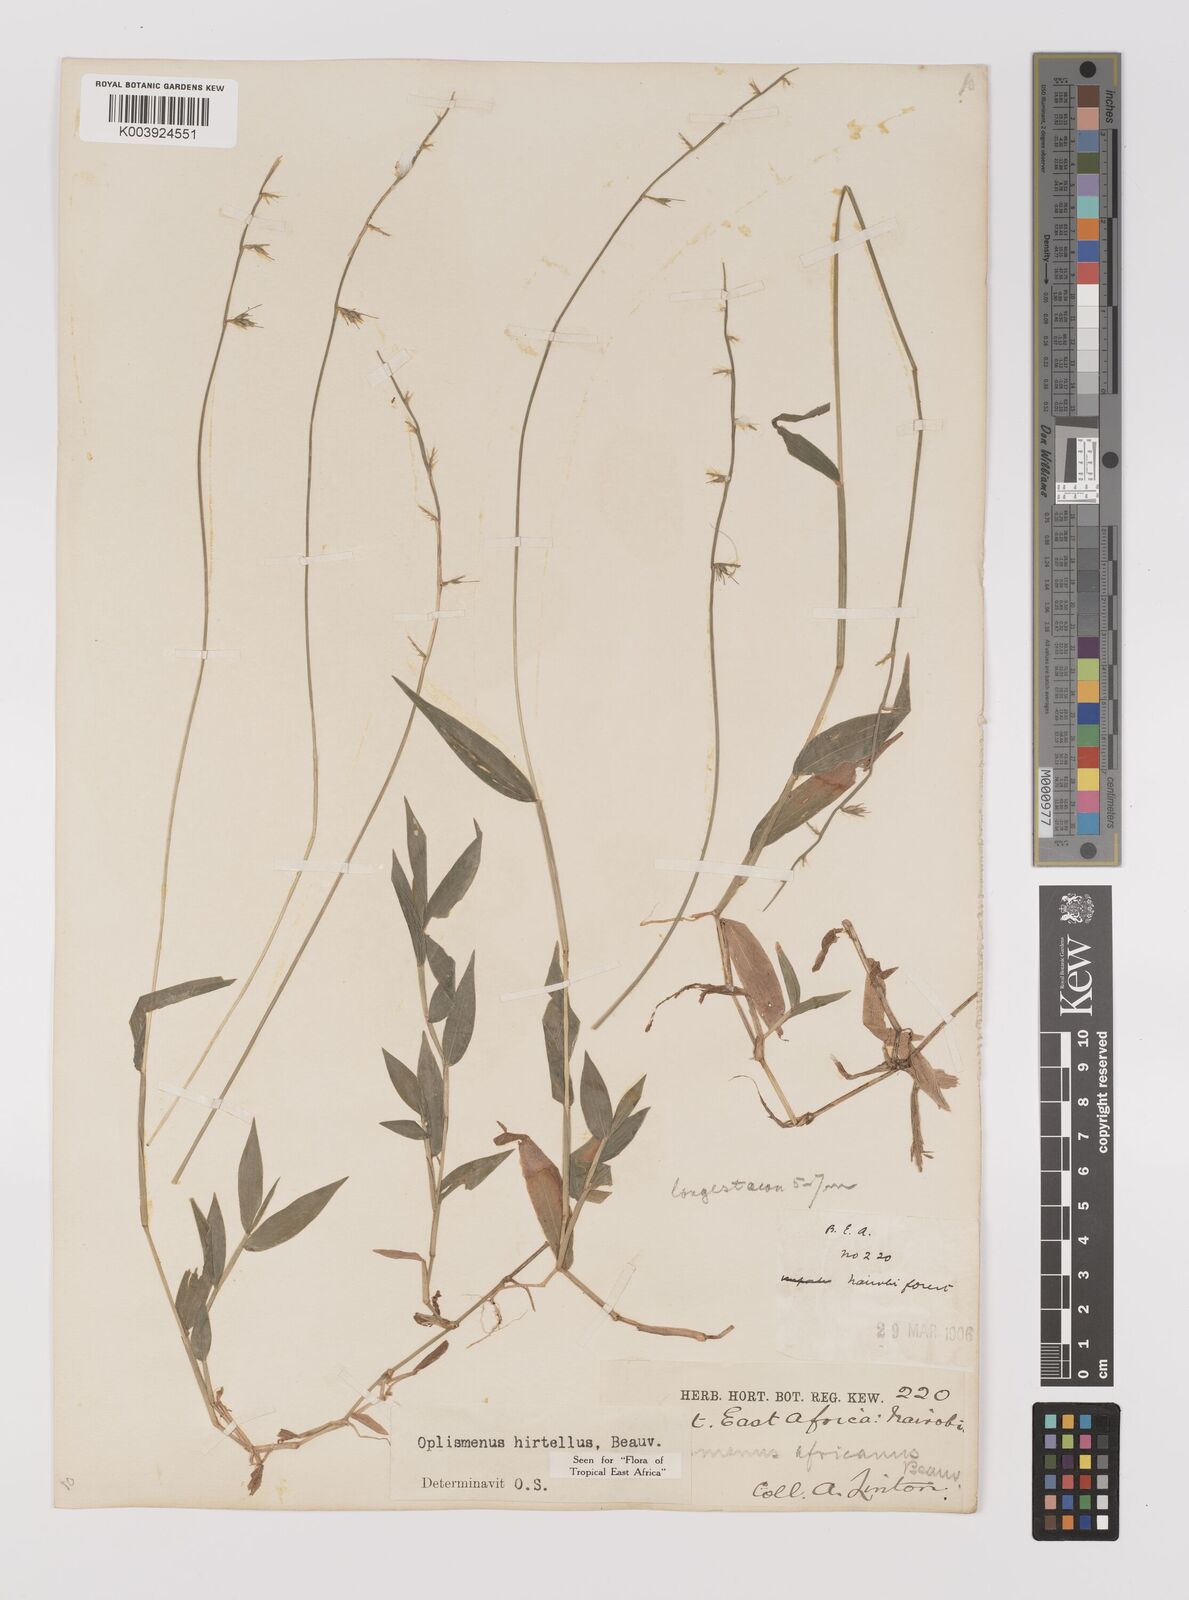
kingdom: Plantae
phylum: Tracheophyta
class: Liliopsida
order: Poales
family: Poaceae
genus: Oplismenus
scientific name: Oplismenus hirtellus
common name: Basketgrass
